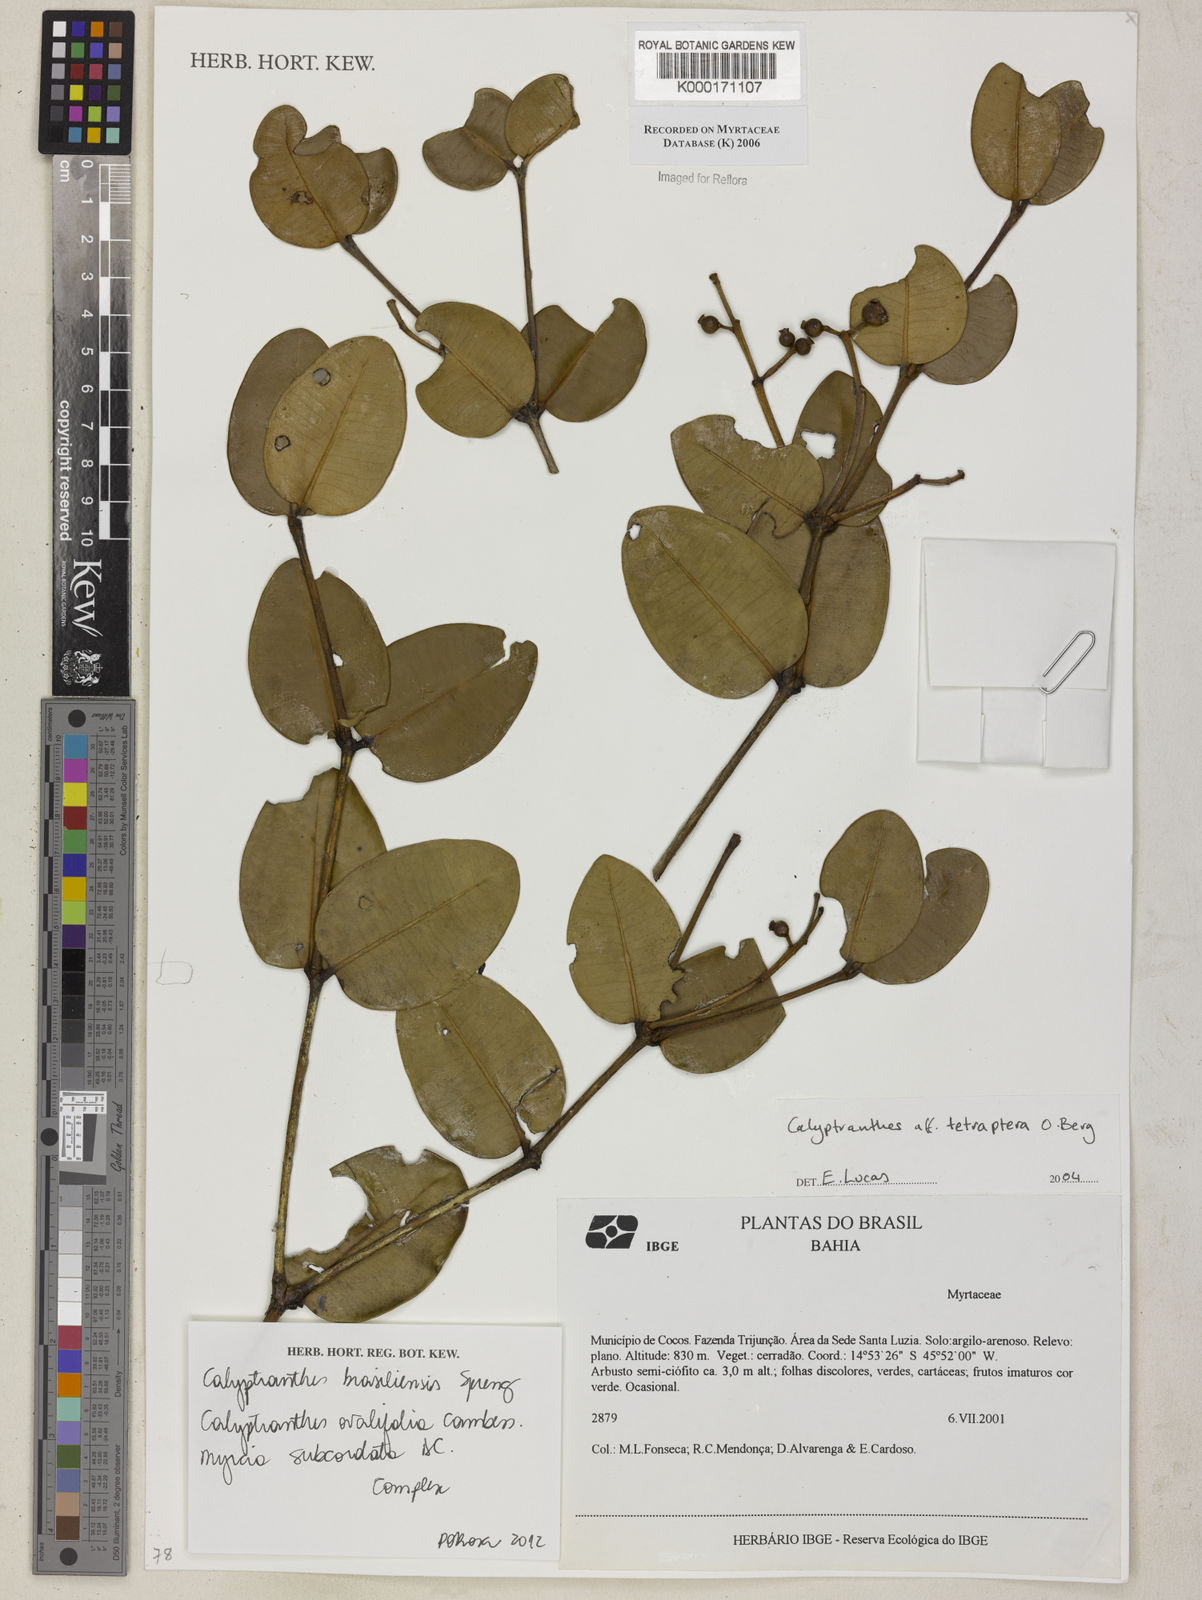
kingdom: Plantae
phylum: Tracheophyta
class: Magnoliopsida
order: Myrtales
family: Myrtaceae
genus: Myrcia
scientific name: Myrcia tetraptera
